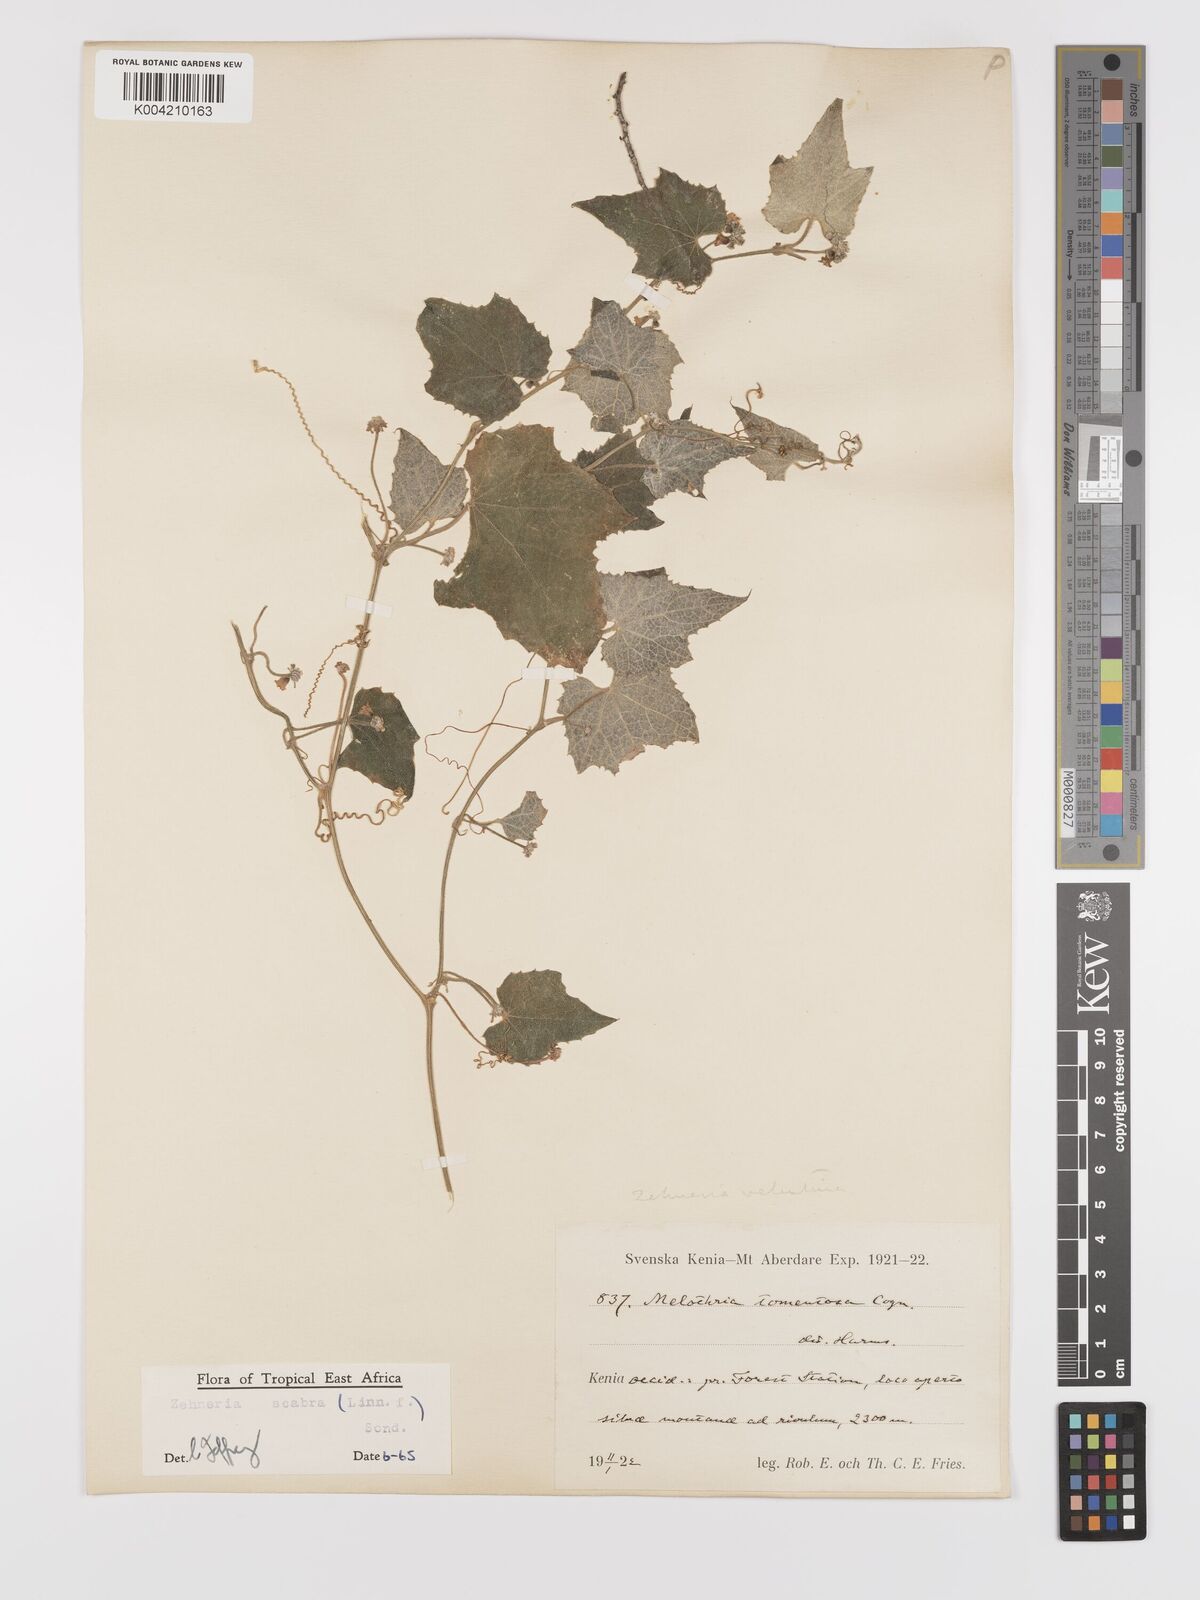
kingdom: Plantae
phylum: Tracheophyta
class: Magnoliopsida
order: Cucurbitales
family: Cucurbitaceae
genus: Zehneria
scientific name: Zehneria scabra
